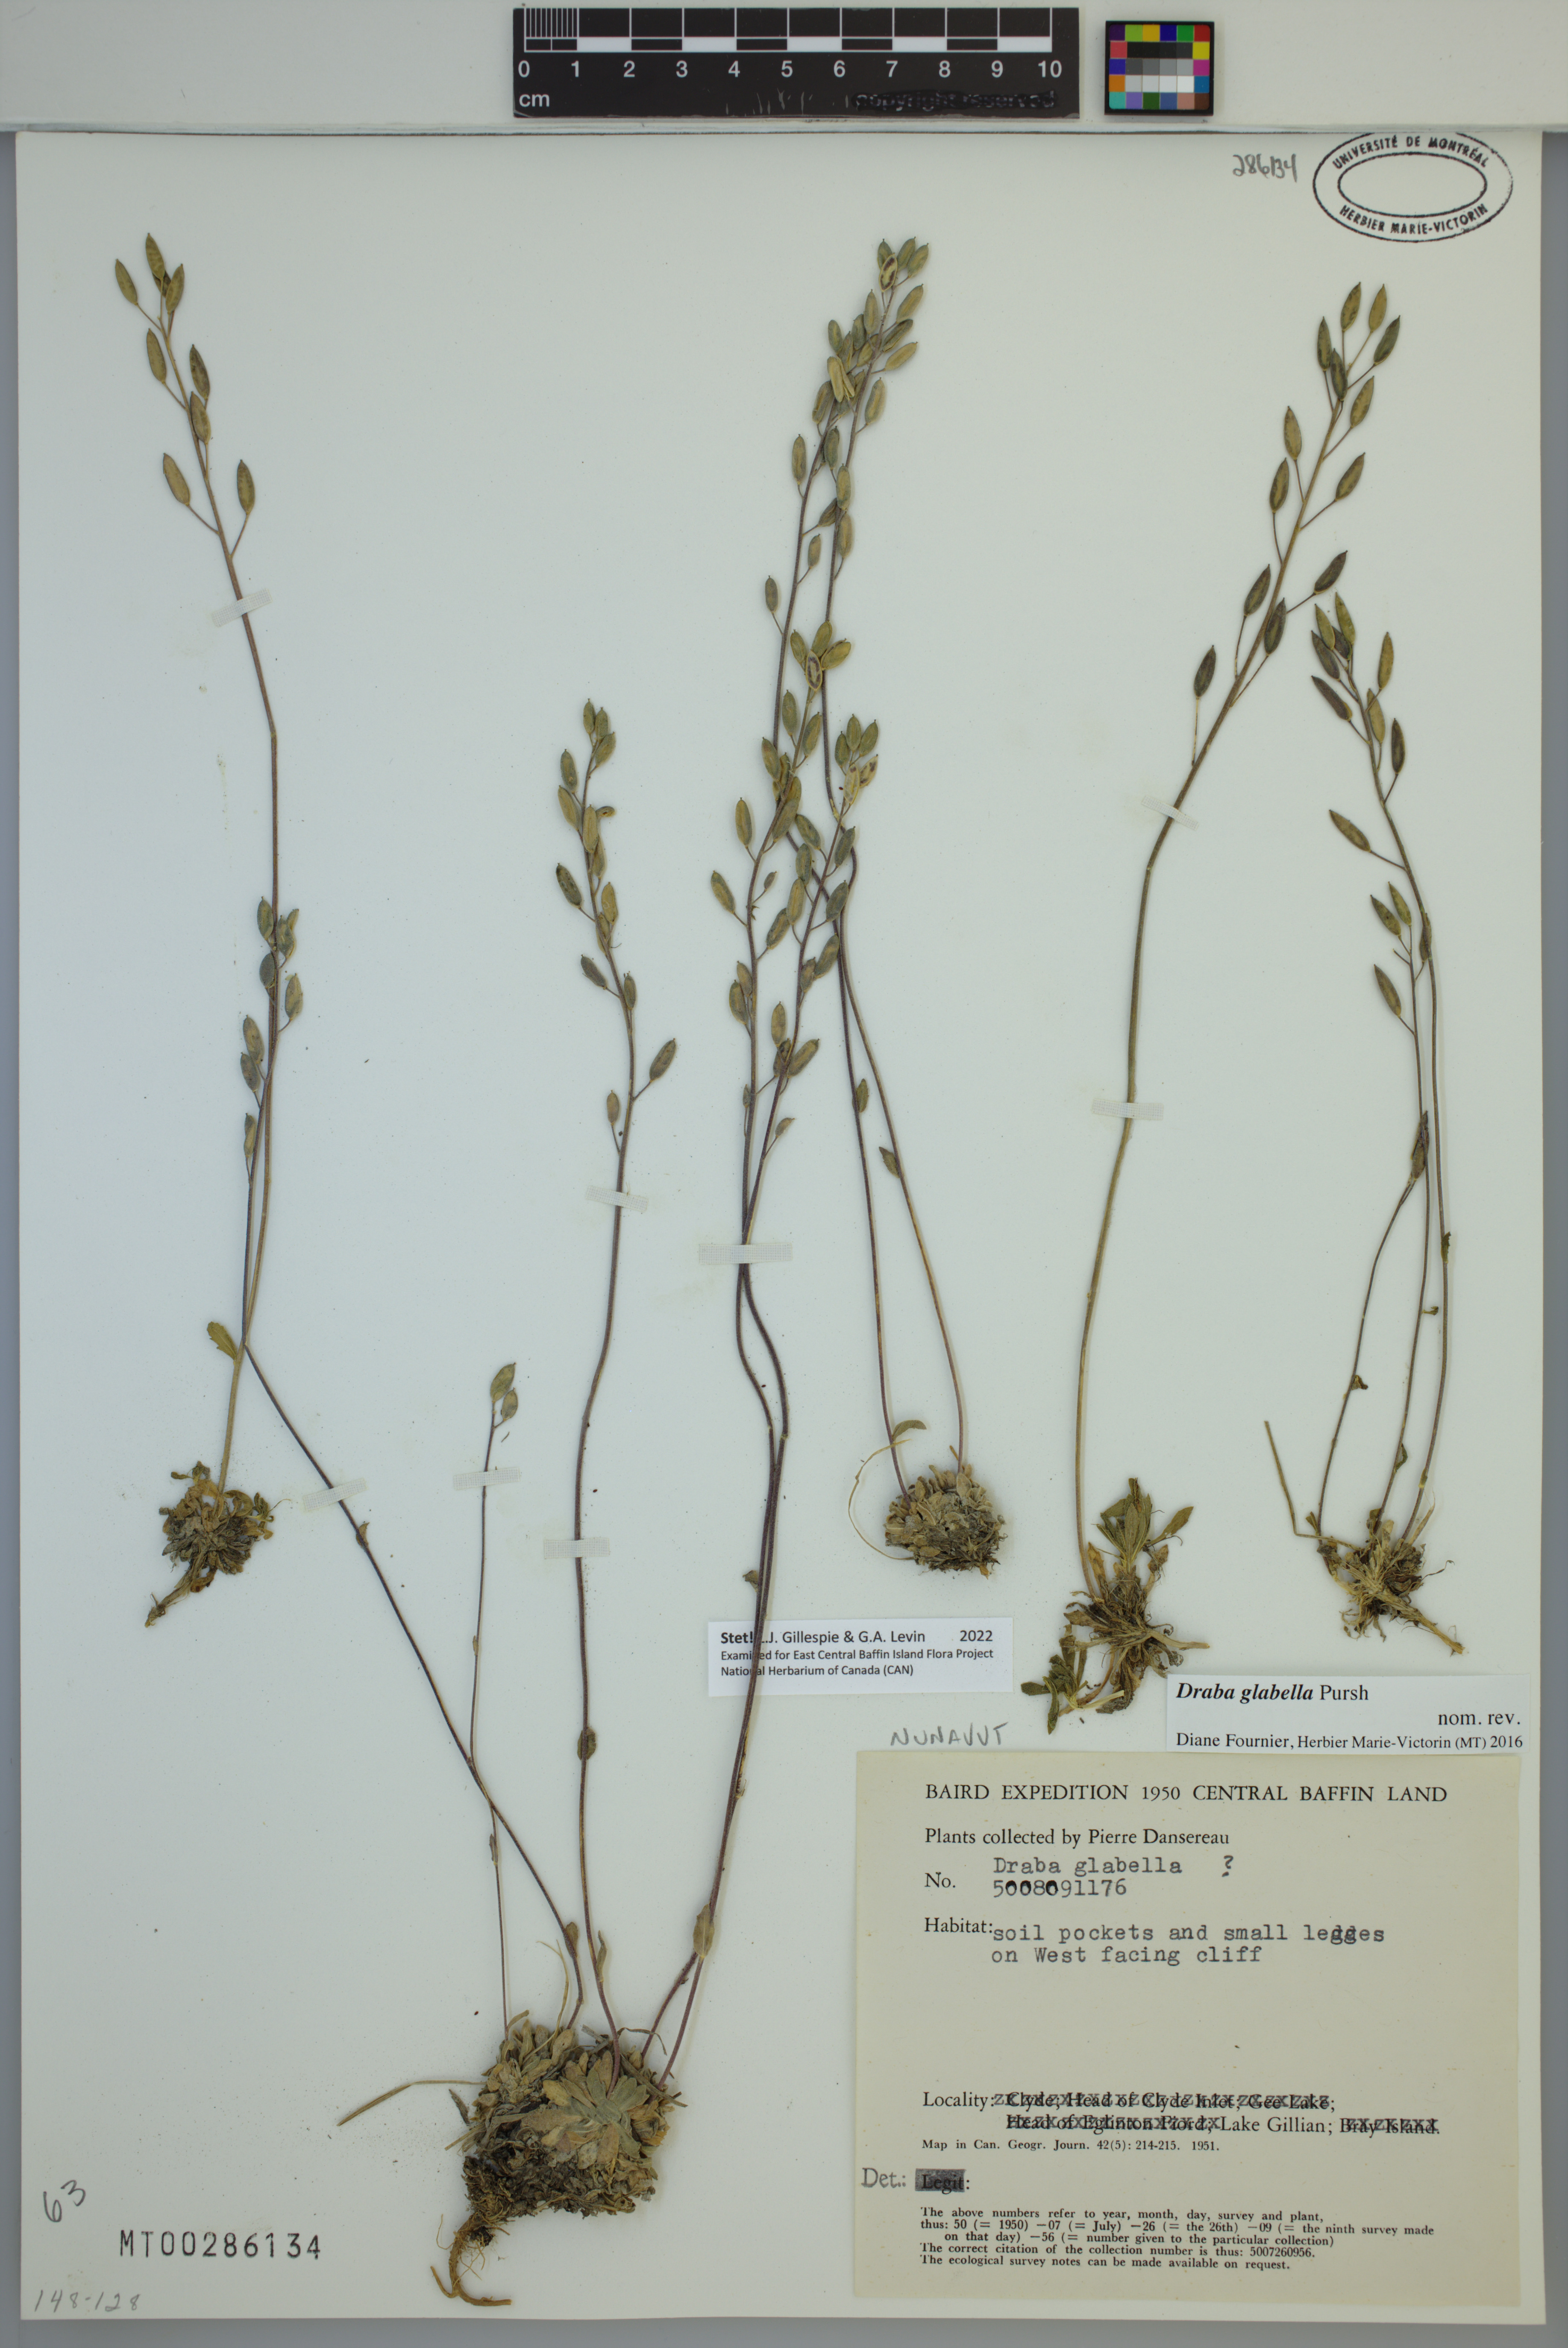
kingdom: Plantae
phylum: Tracheophyta
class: Magnoliopsida
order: Brassicales
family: Brassicaceae
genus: Draba
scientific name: Draba glabella
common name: Glaucous draba
